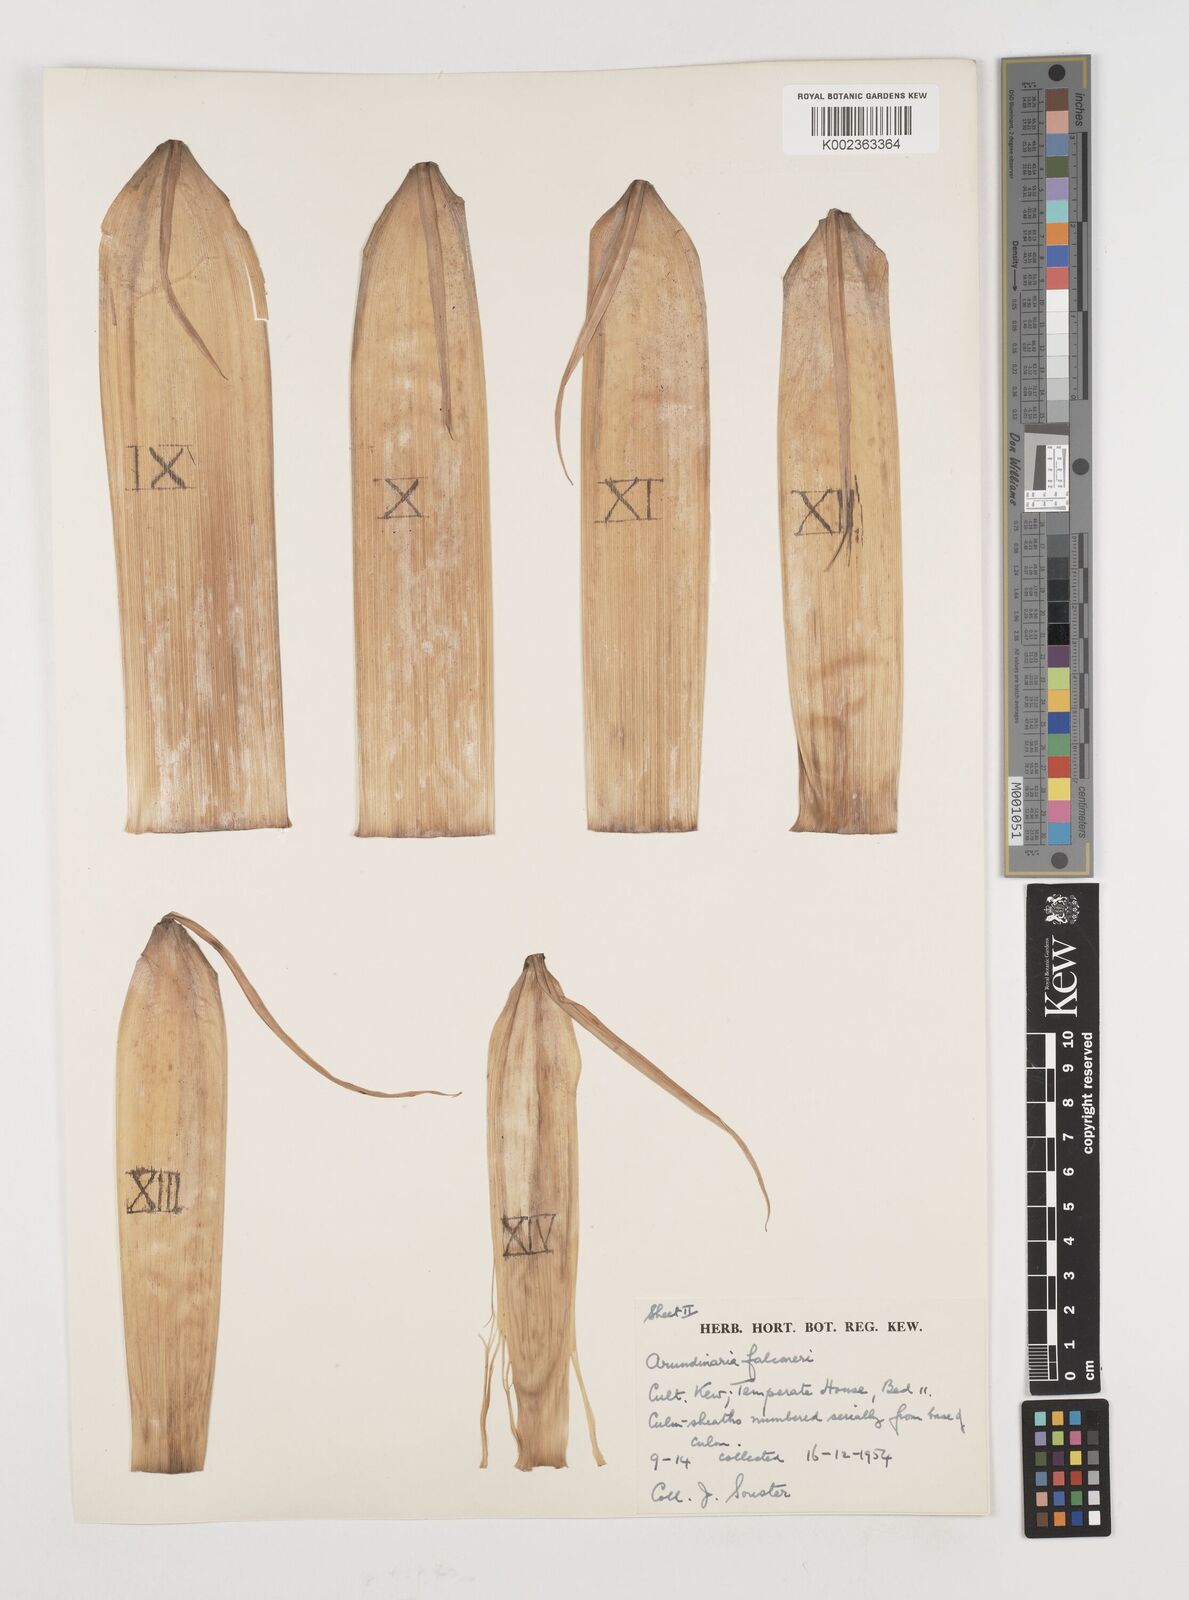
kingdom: Plantae
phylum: Tracheophyta
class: Liliopsida
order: Poales
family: Poaceae
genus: Himalayacalamus
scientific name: Himalayacalamus falconeri
